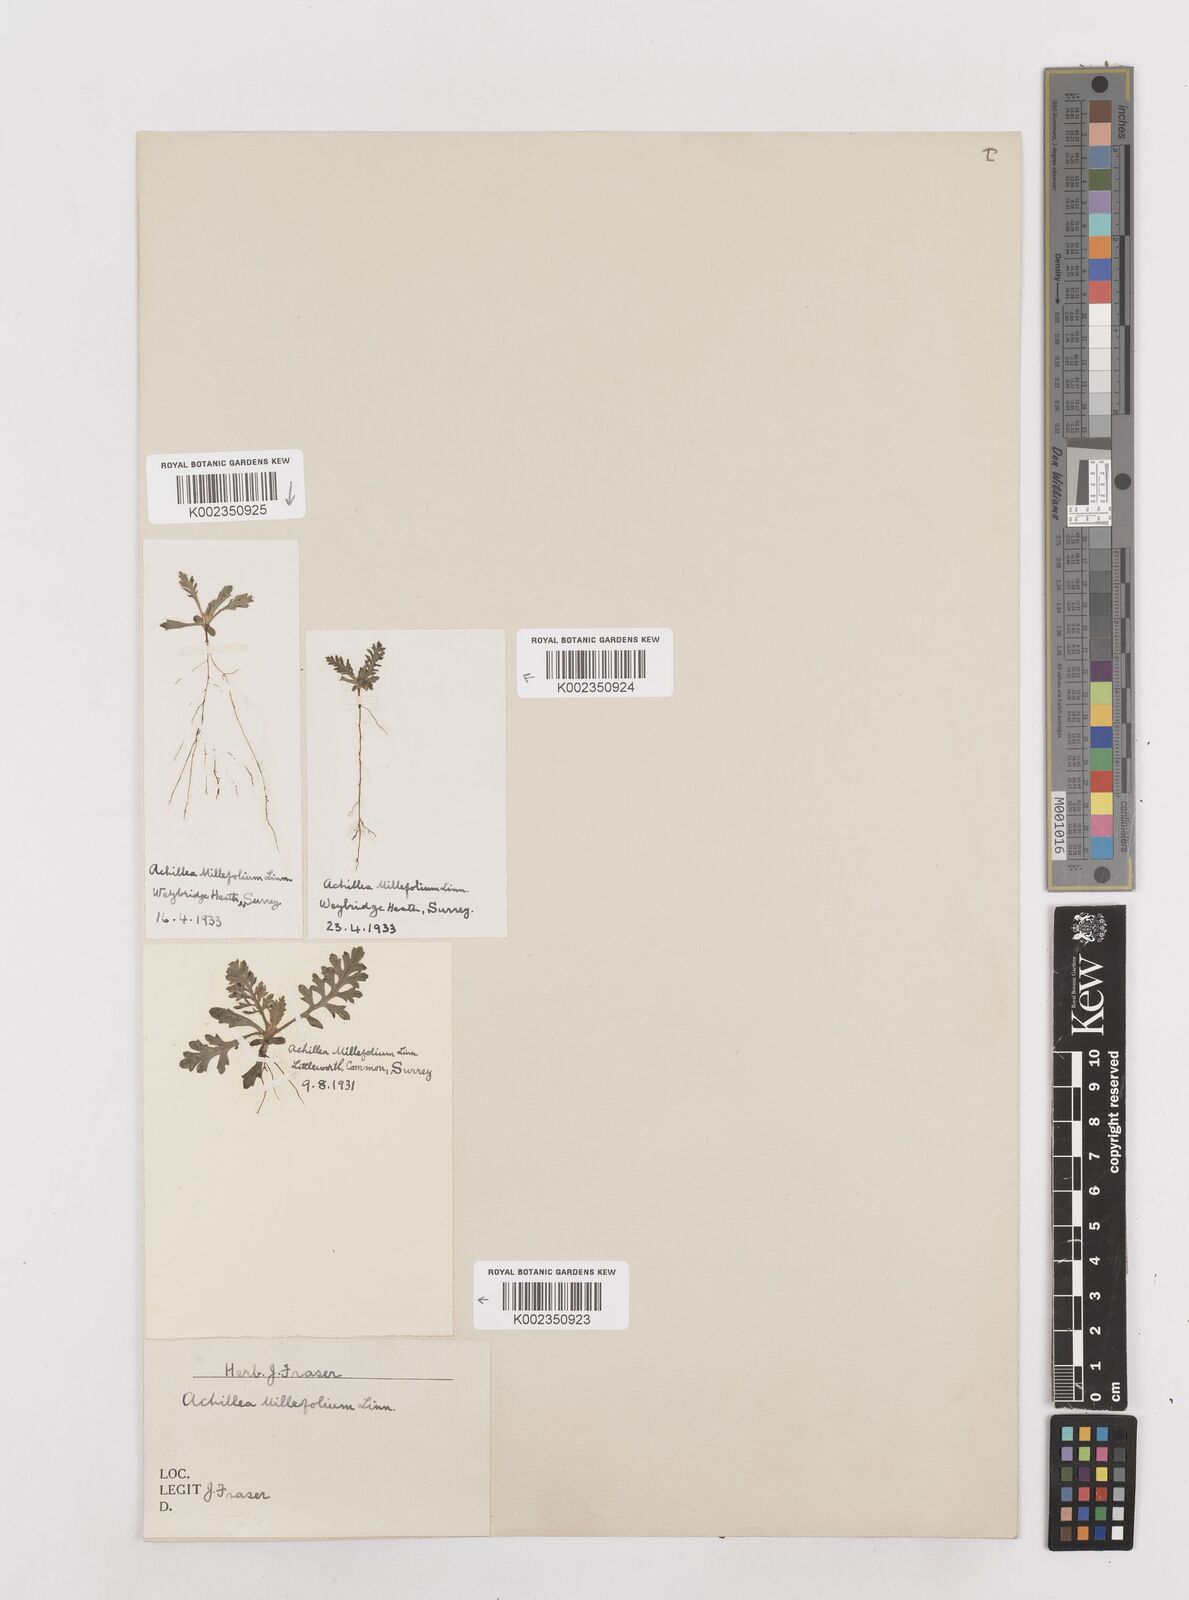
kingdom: Plantae
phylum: Tracheophyta
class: Magnoliopsida
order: Asterales
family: Asteraceae
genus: Achillea
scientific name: Achillea millefolium
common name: Yarrow
